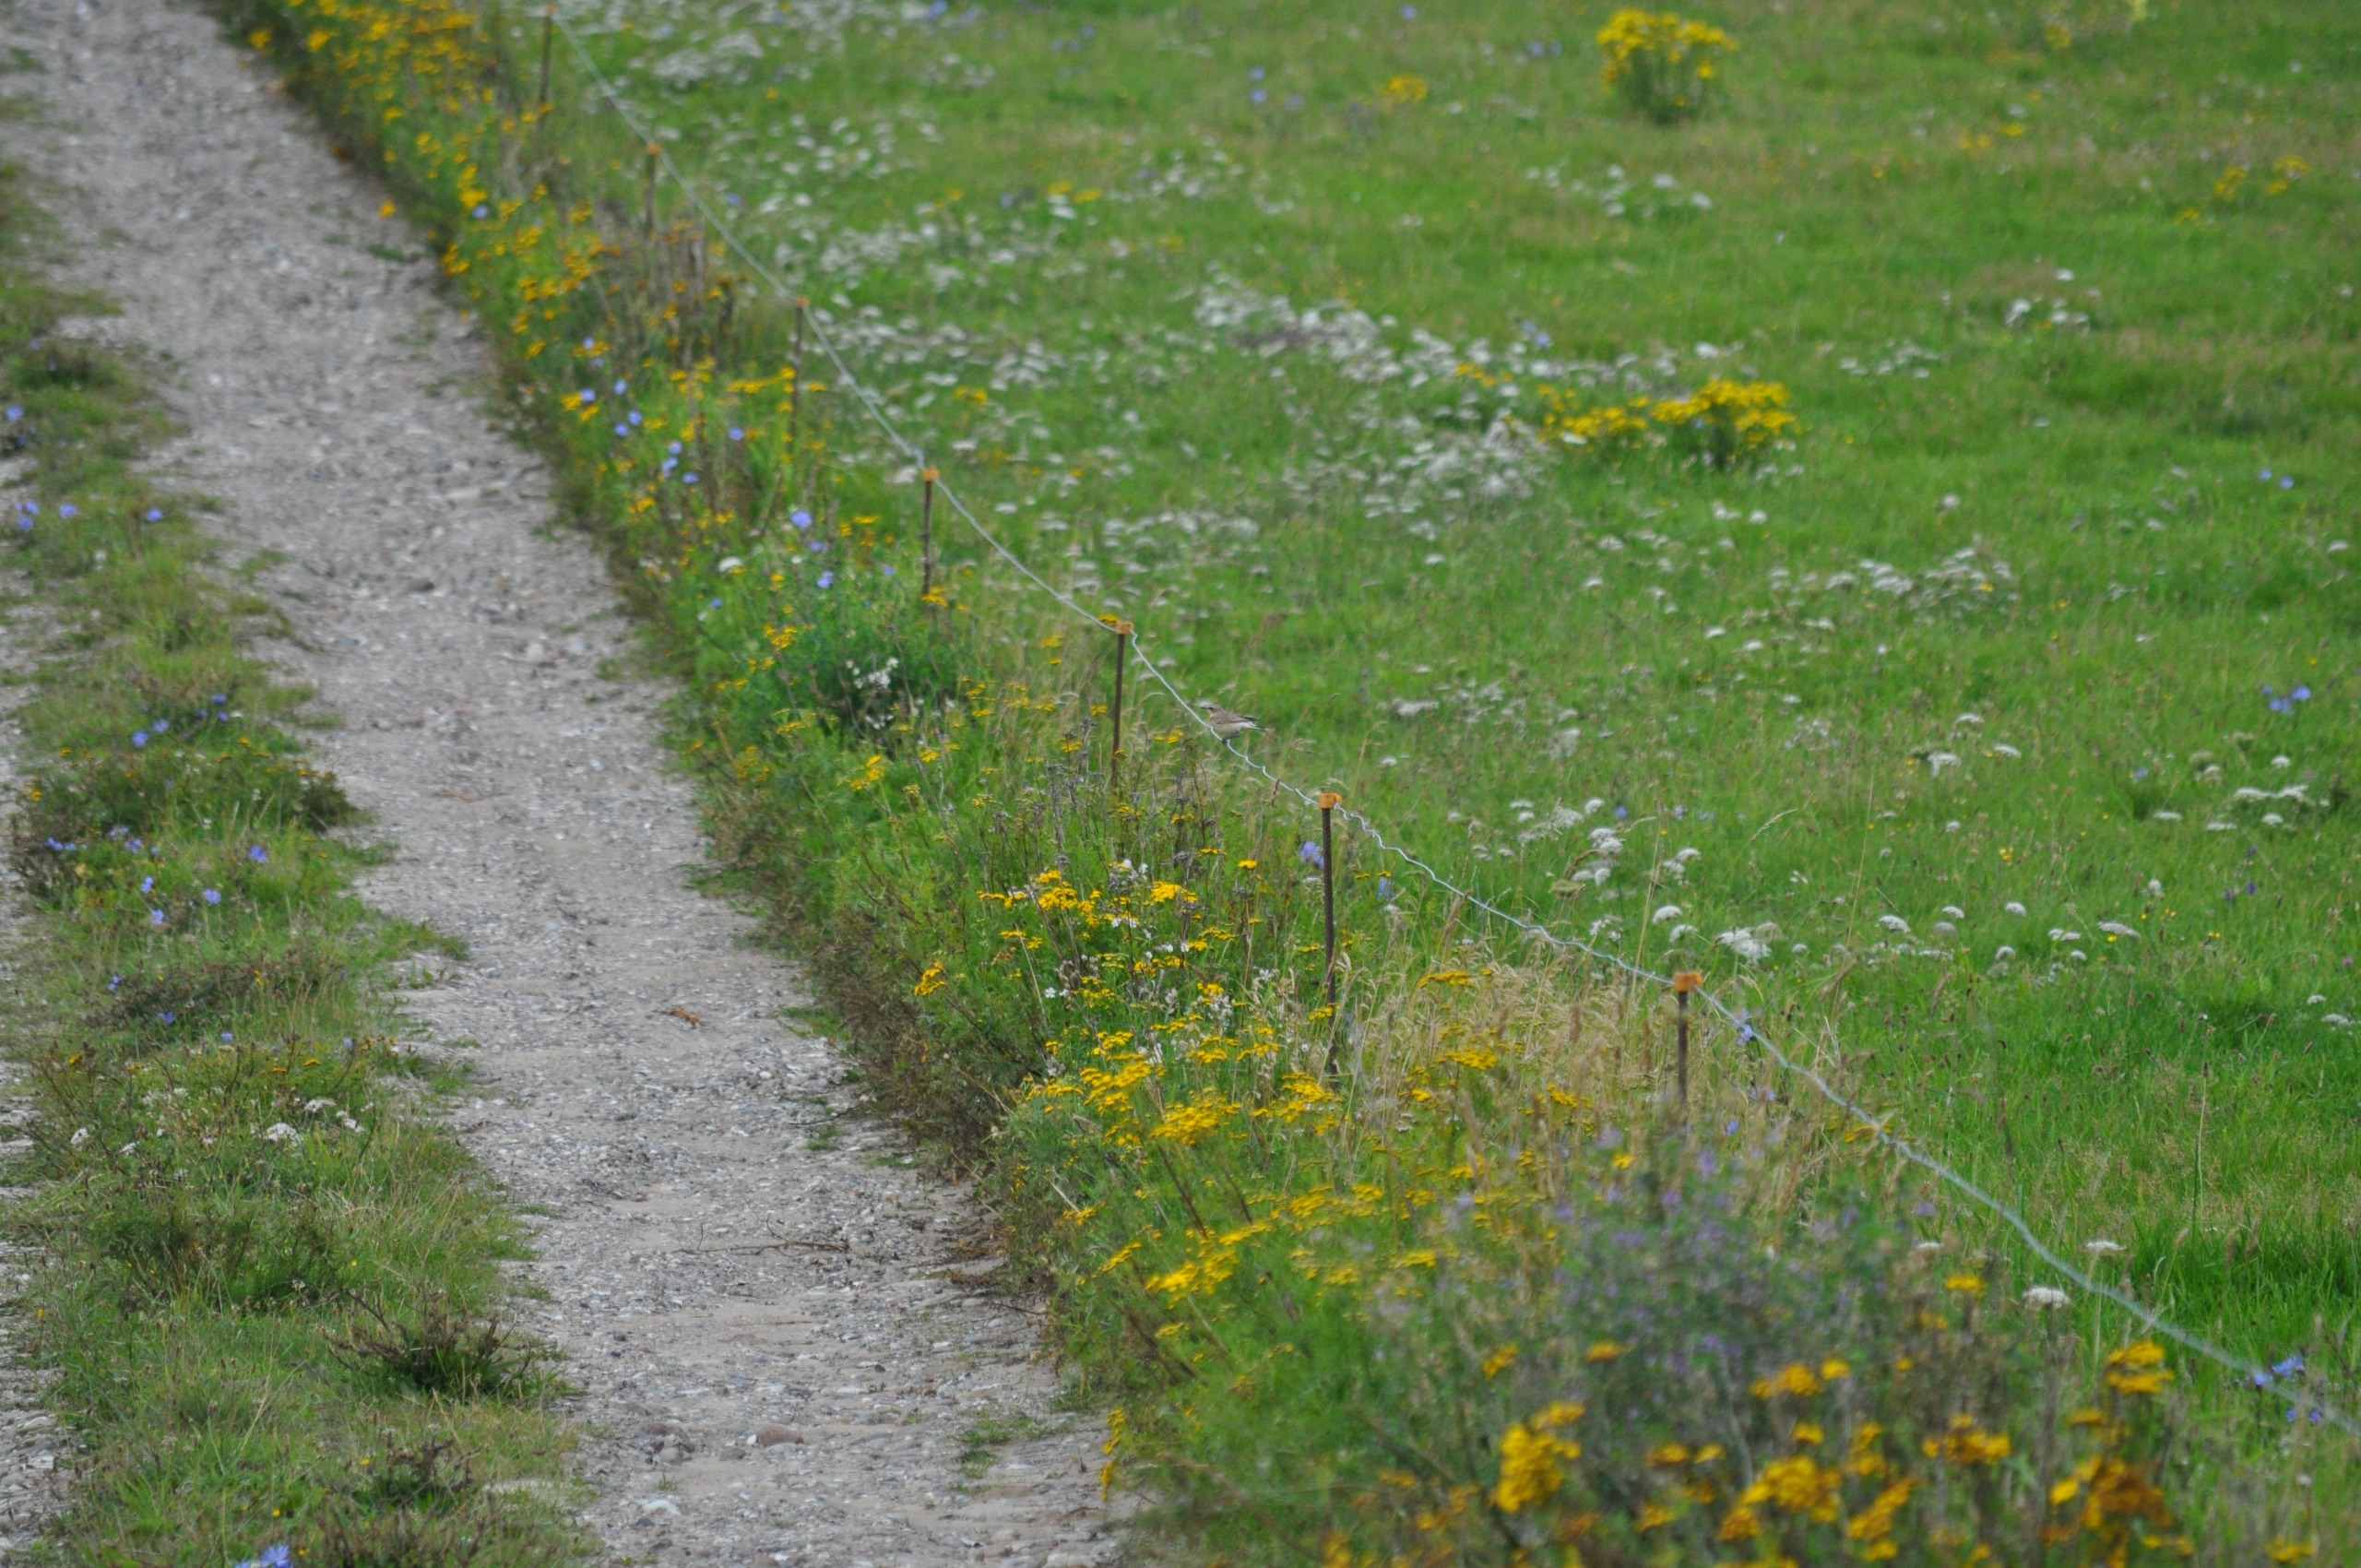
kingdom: Animalia
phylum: Chordata
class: Aves
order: Passeriformes
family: Muscicapidae
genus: Oenanthe
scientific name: Oenanthe oenanthe
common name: Stenpikker
